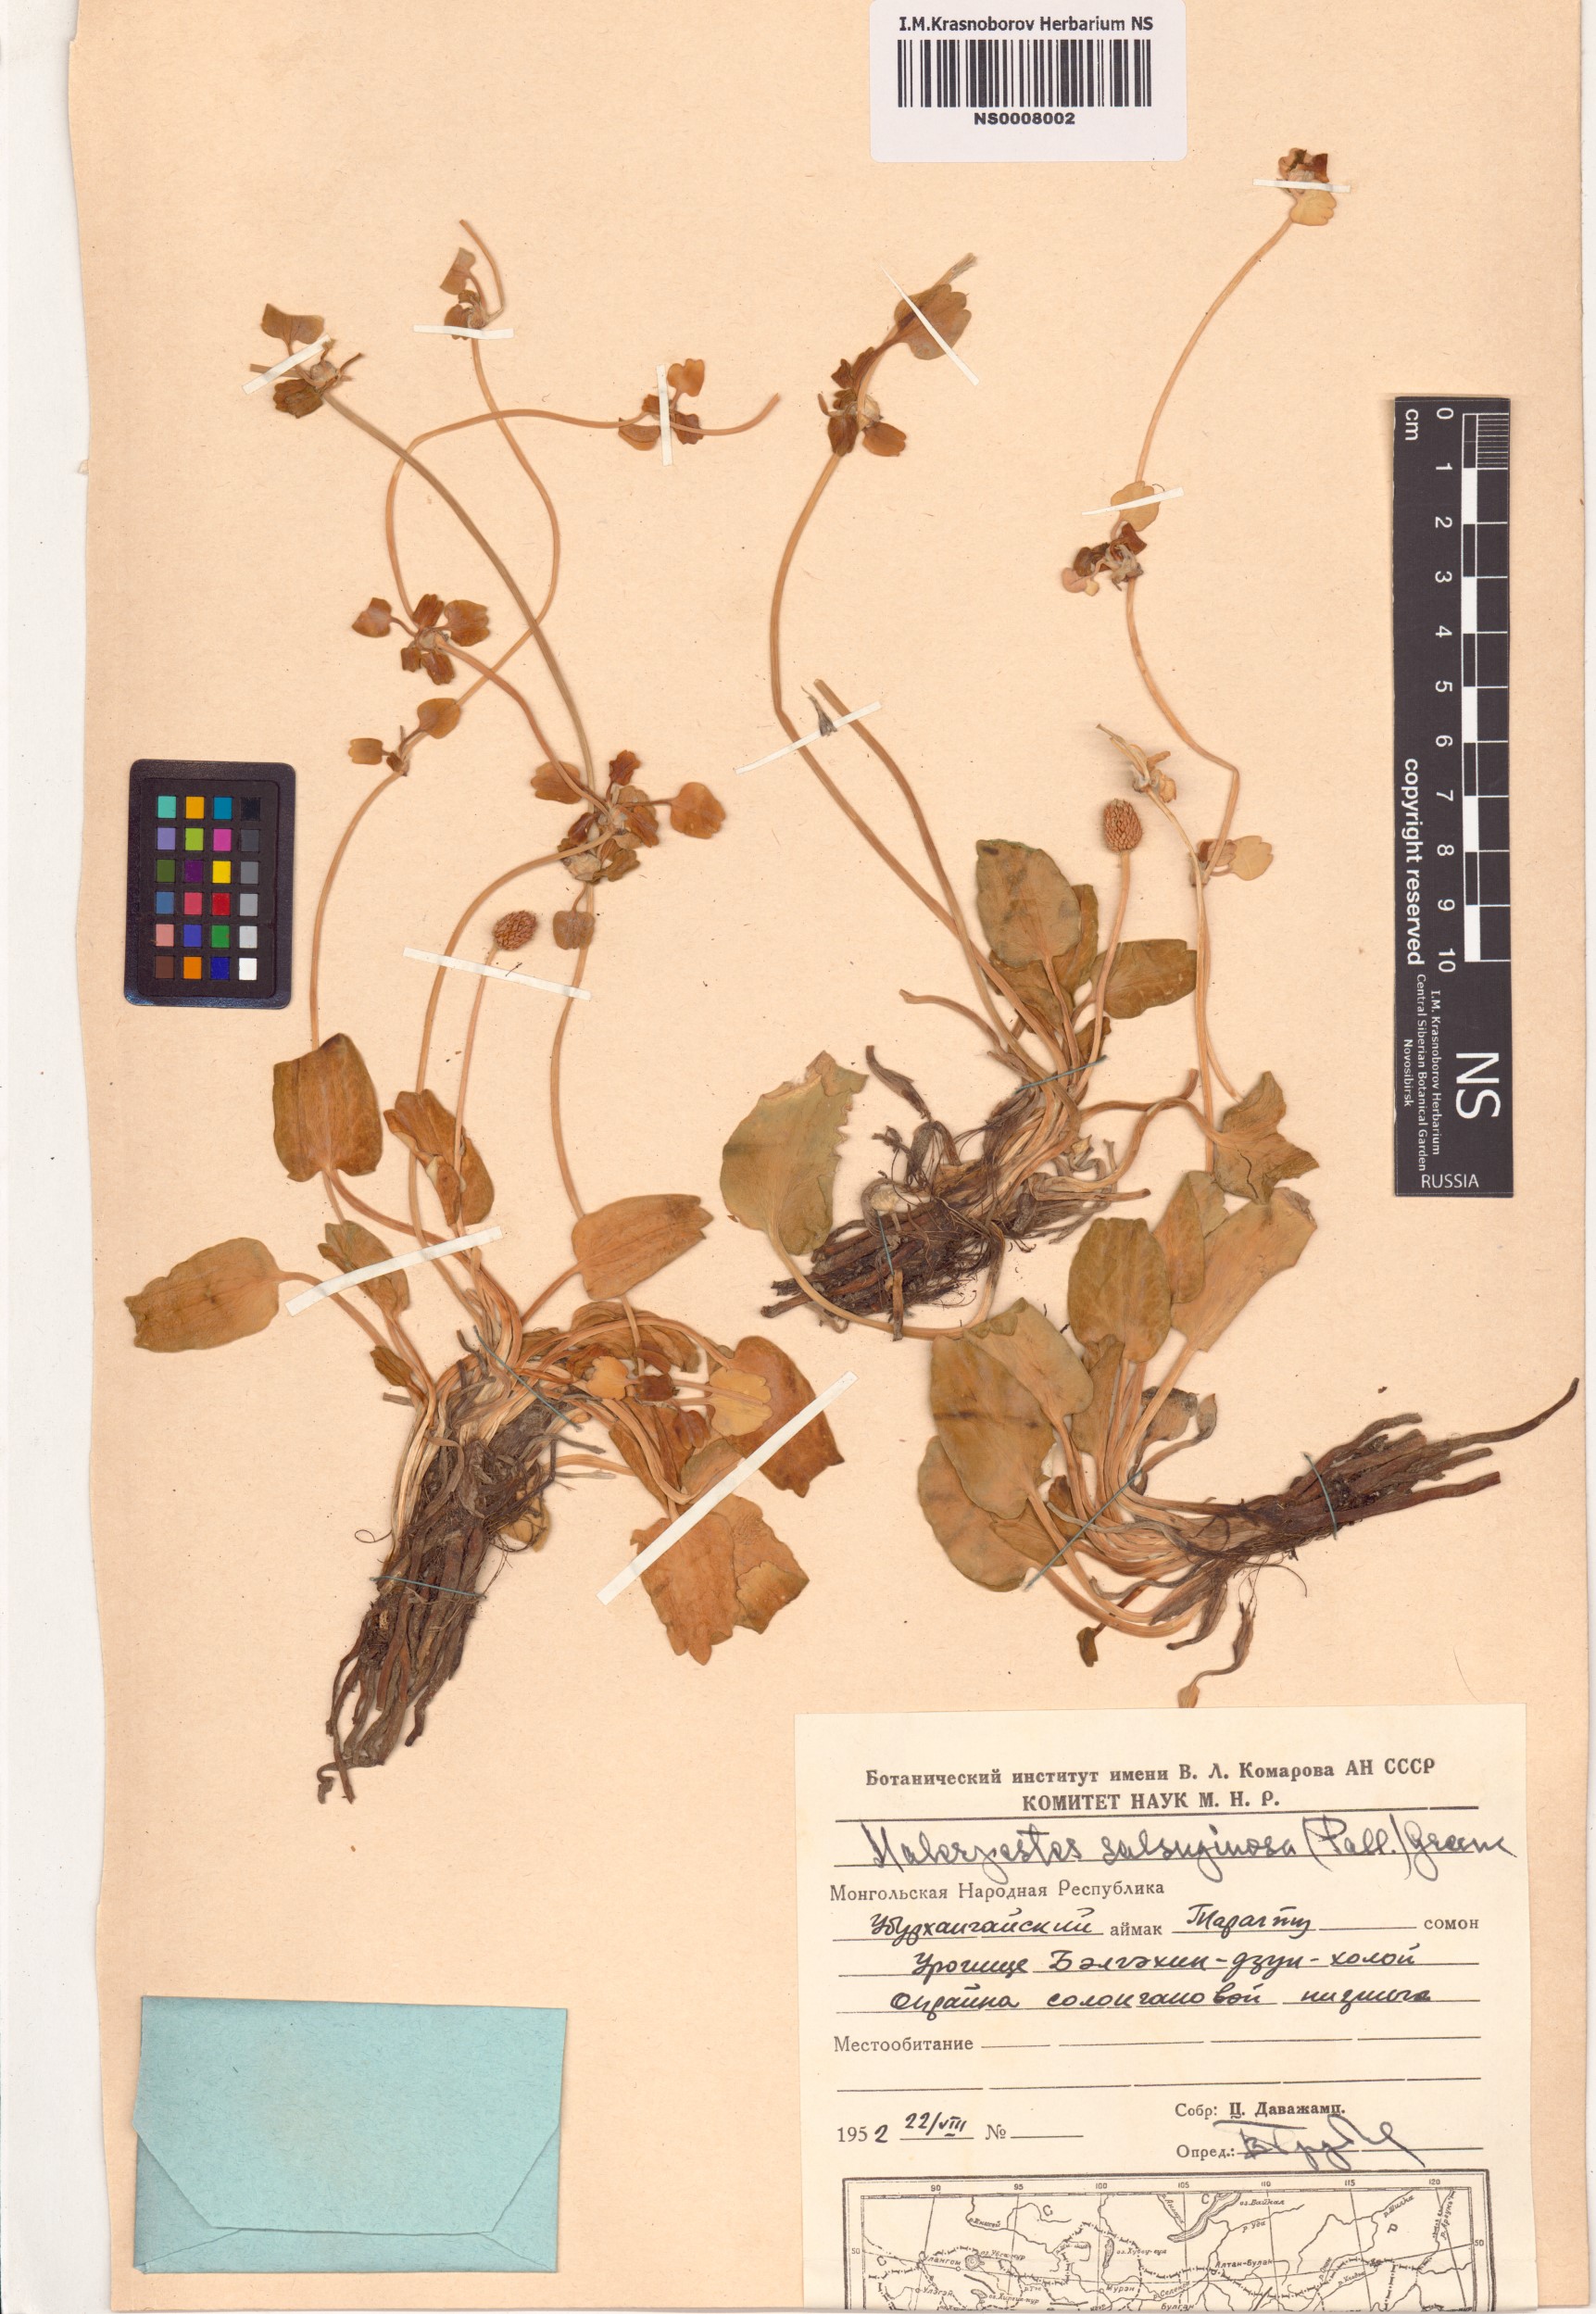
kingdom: Plantae
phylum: Tracheophyta
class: Magnoliopsida
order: Ranunculales
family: Ranunculaceae
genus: Halerpestes
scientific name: Halerpestes sarmentosus
